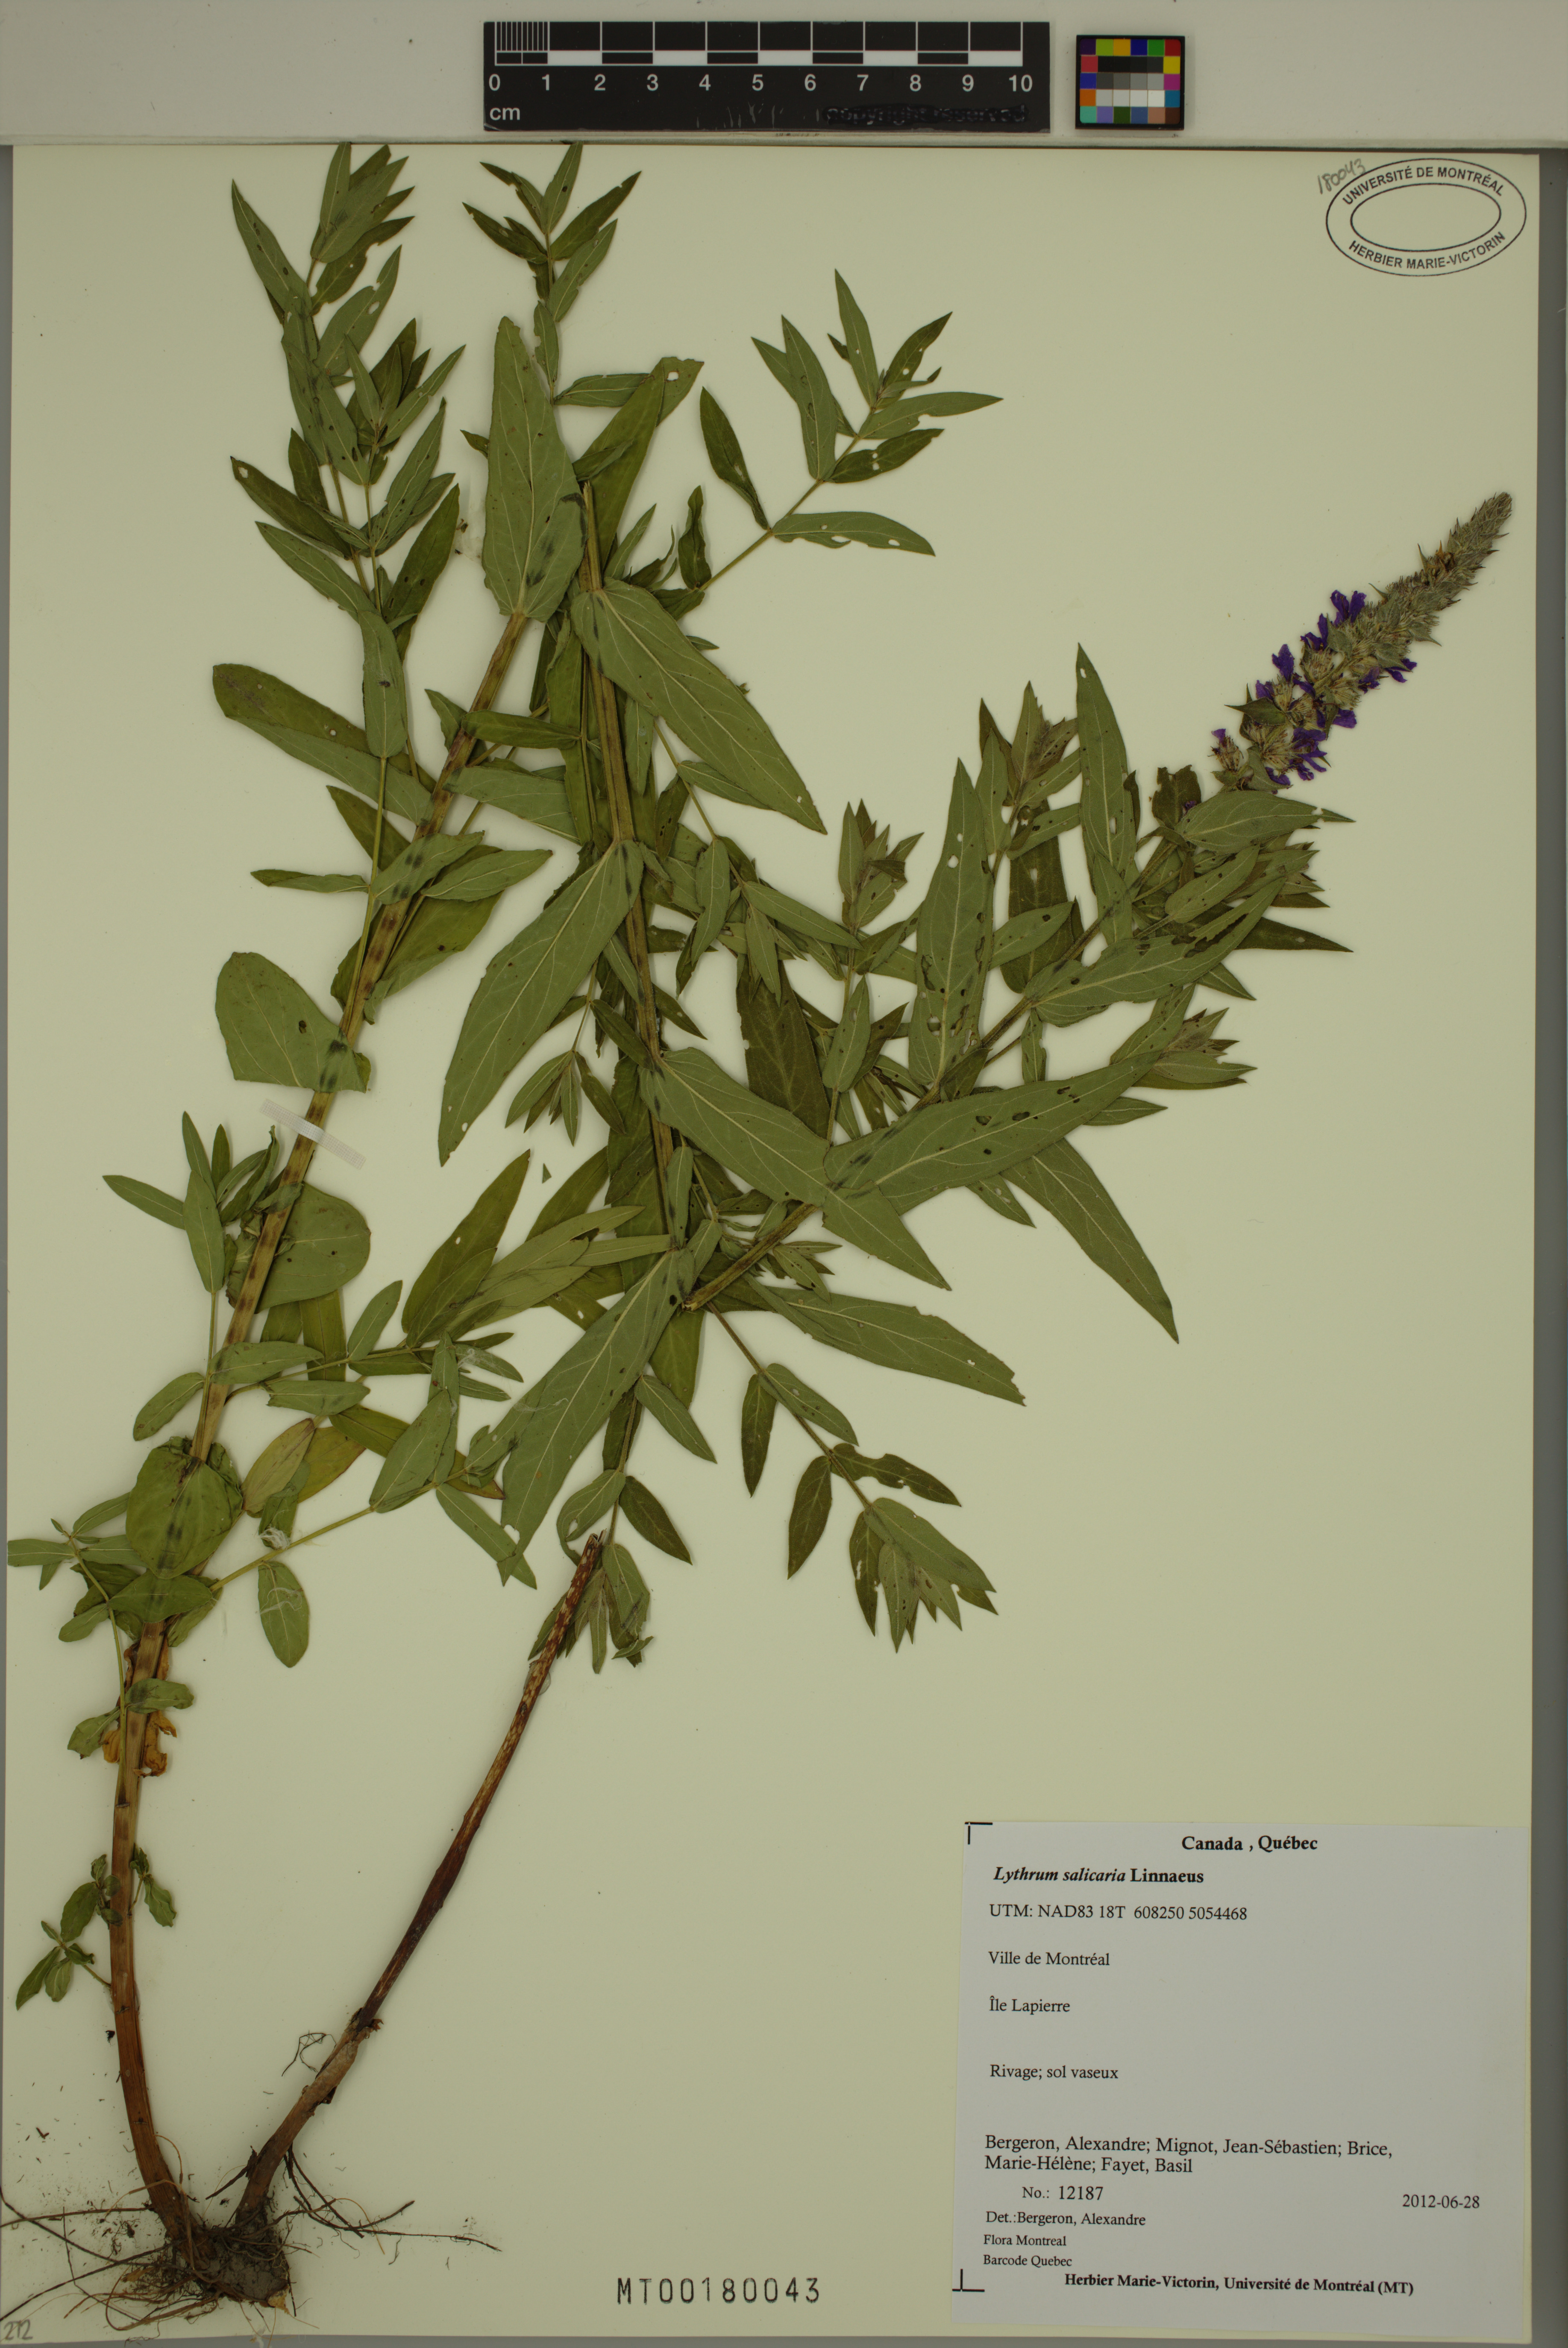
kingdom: Plantae
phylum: Tracheophyta
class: Magnoliopsida
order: Myrtales
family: Lythraceae
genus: Lythrum
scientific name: Lythrum salicaria
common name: Purple loosestrife
